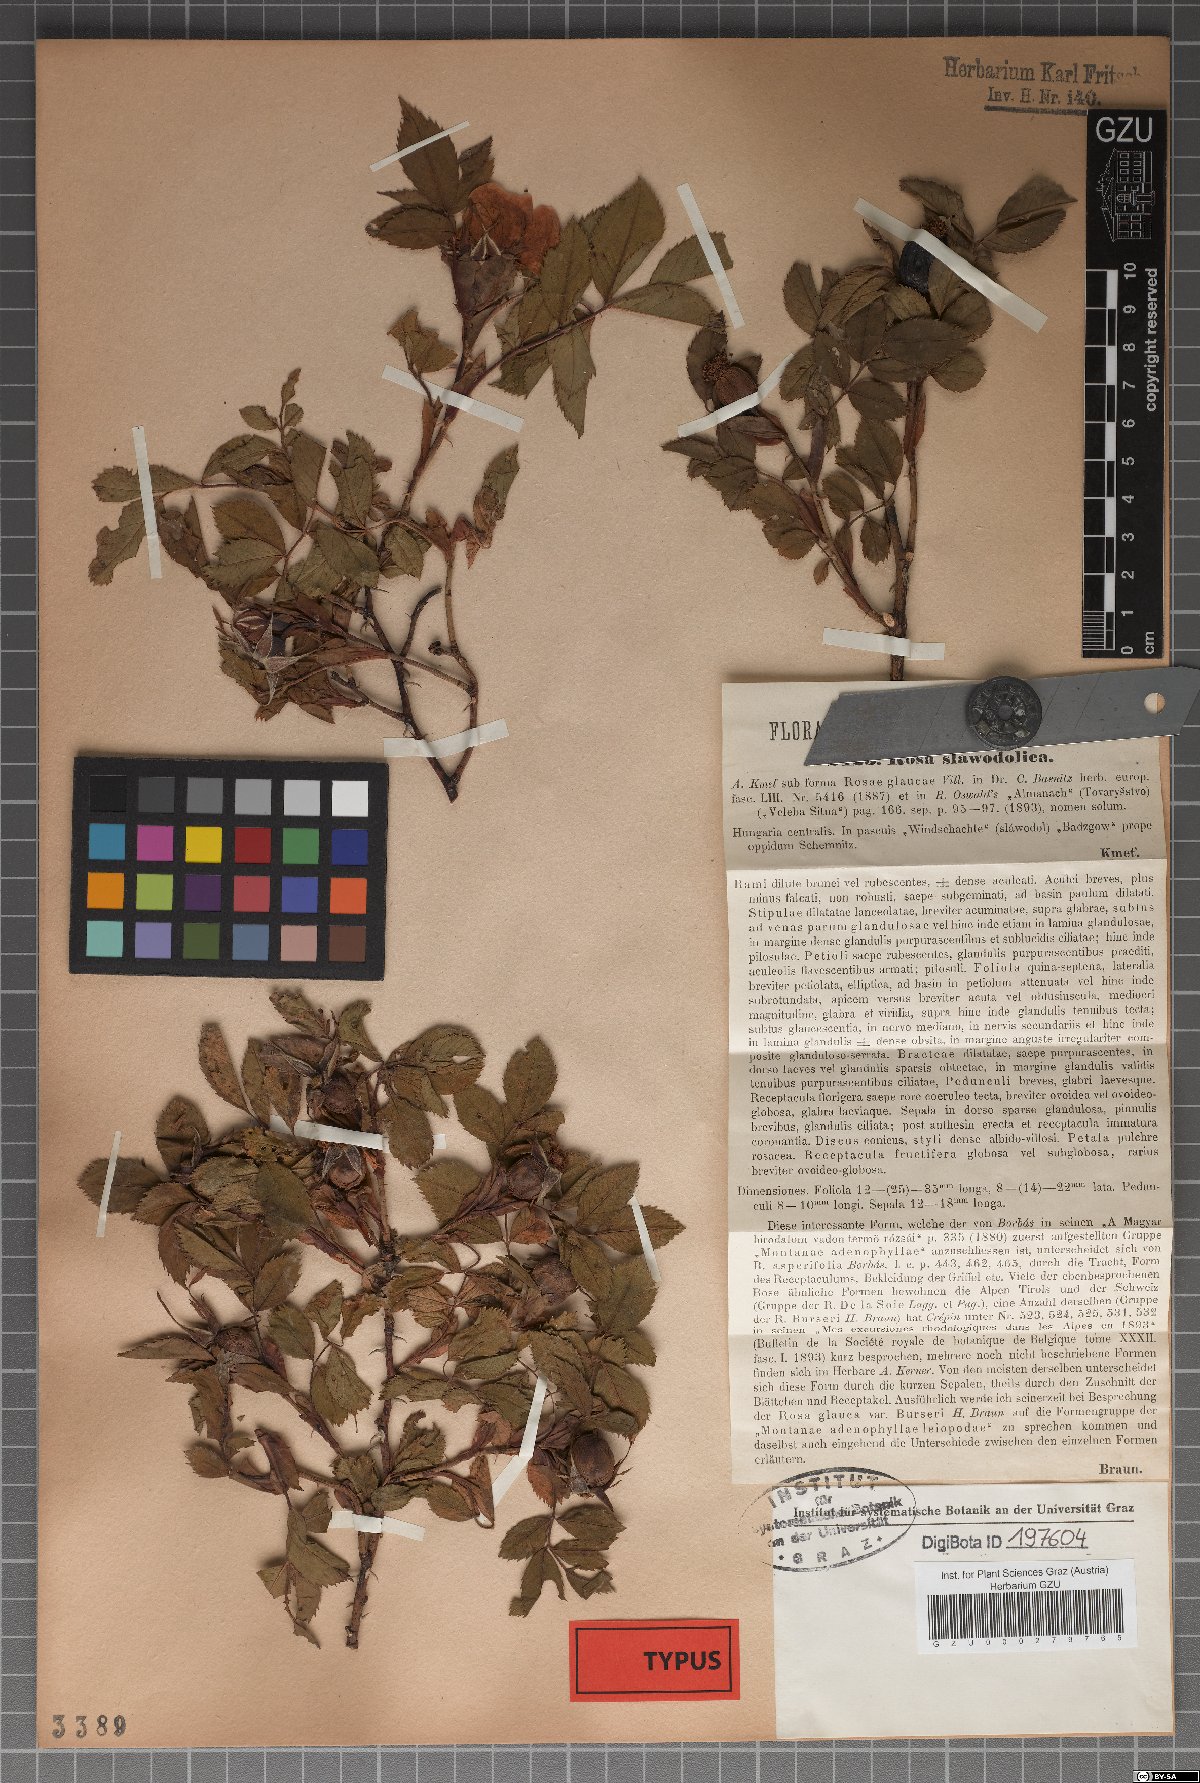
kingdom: Plantae
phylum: Tracheophyta
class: Magnoliopsida
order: Rosales
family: Rosaceae
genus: Rosa
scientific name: Rosa subcanina
